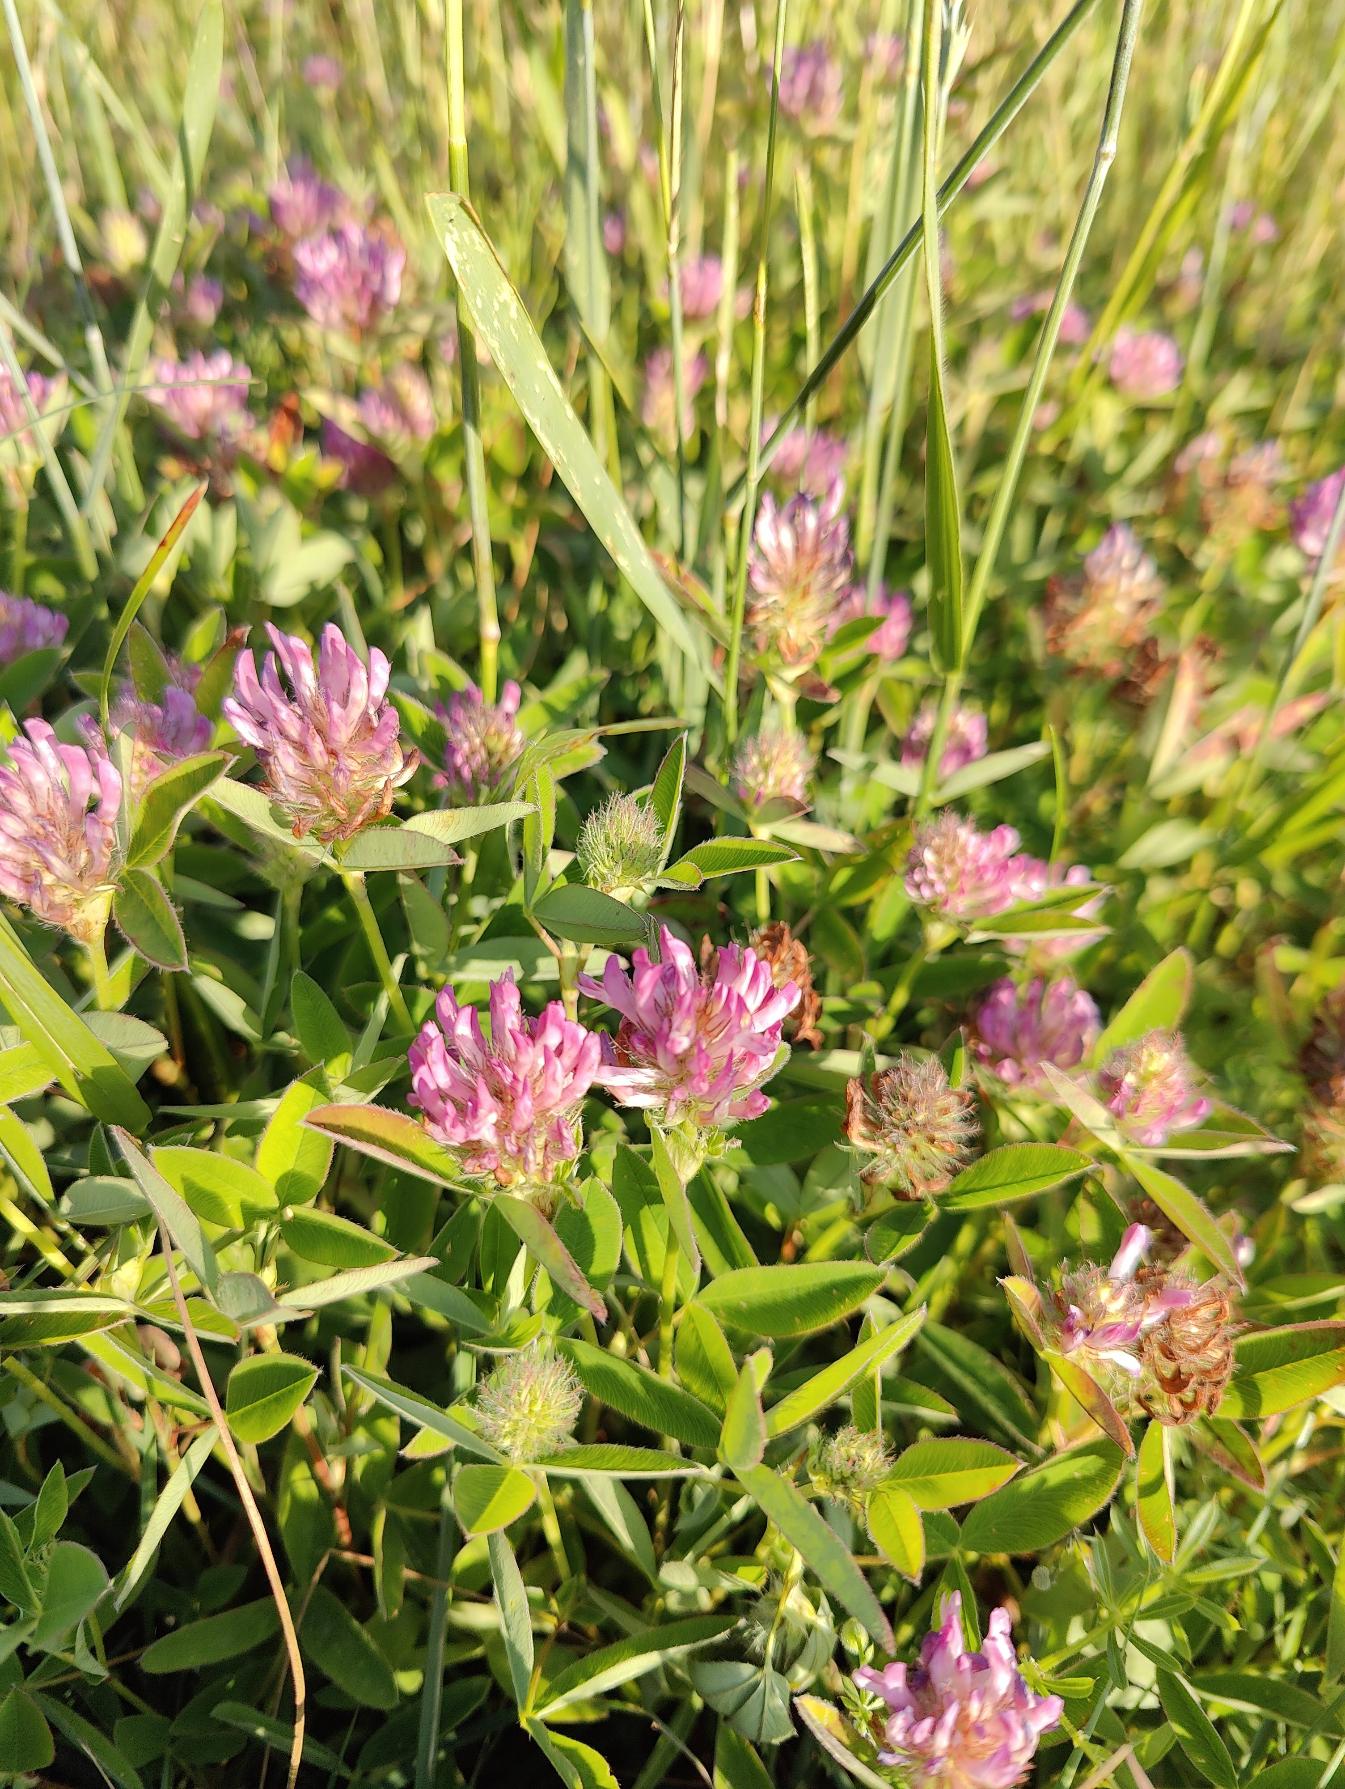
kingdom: Plantae
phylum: Tracheophyta
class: Magnoliopsida
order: Fabales
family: Fabaceae
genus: Trifolium
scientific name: Trifolium medium
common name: Bugtet kløver
